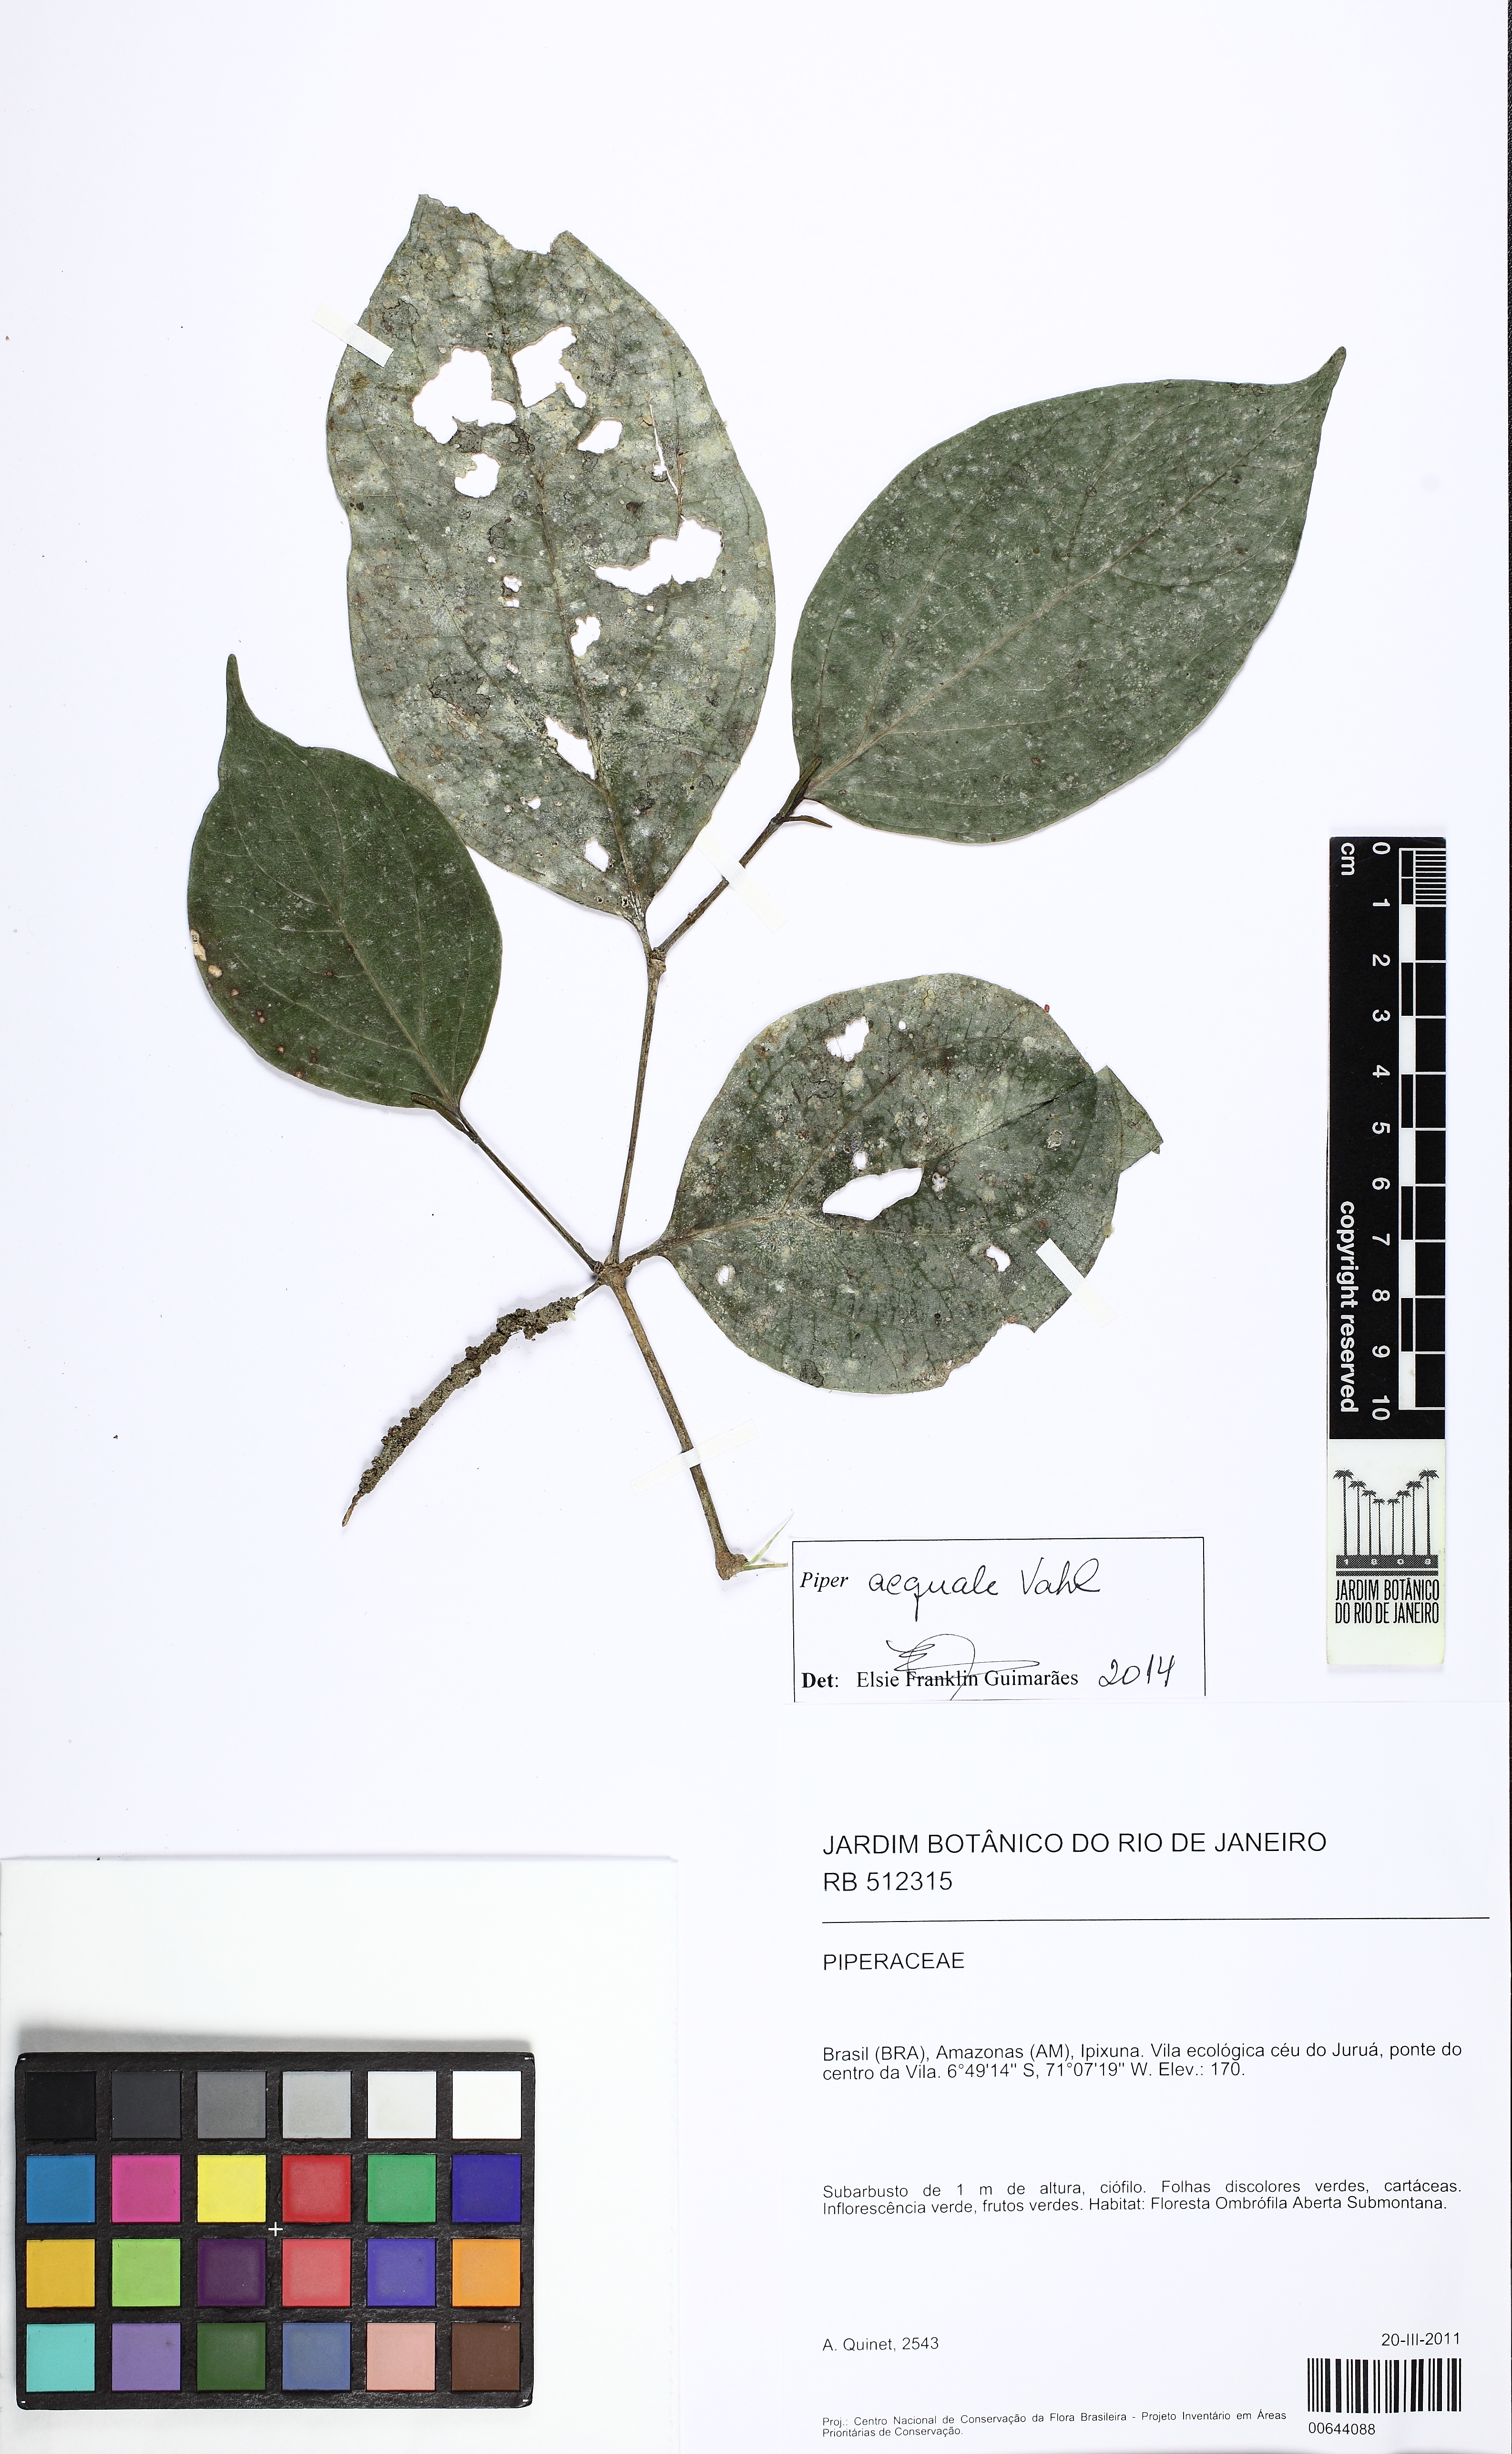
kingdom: Plantae
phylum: Tracheophyta
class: Magnoliopsida
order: Piperales
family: Piperaceae
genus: Piper
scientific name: Piper aequale
